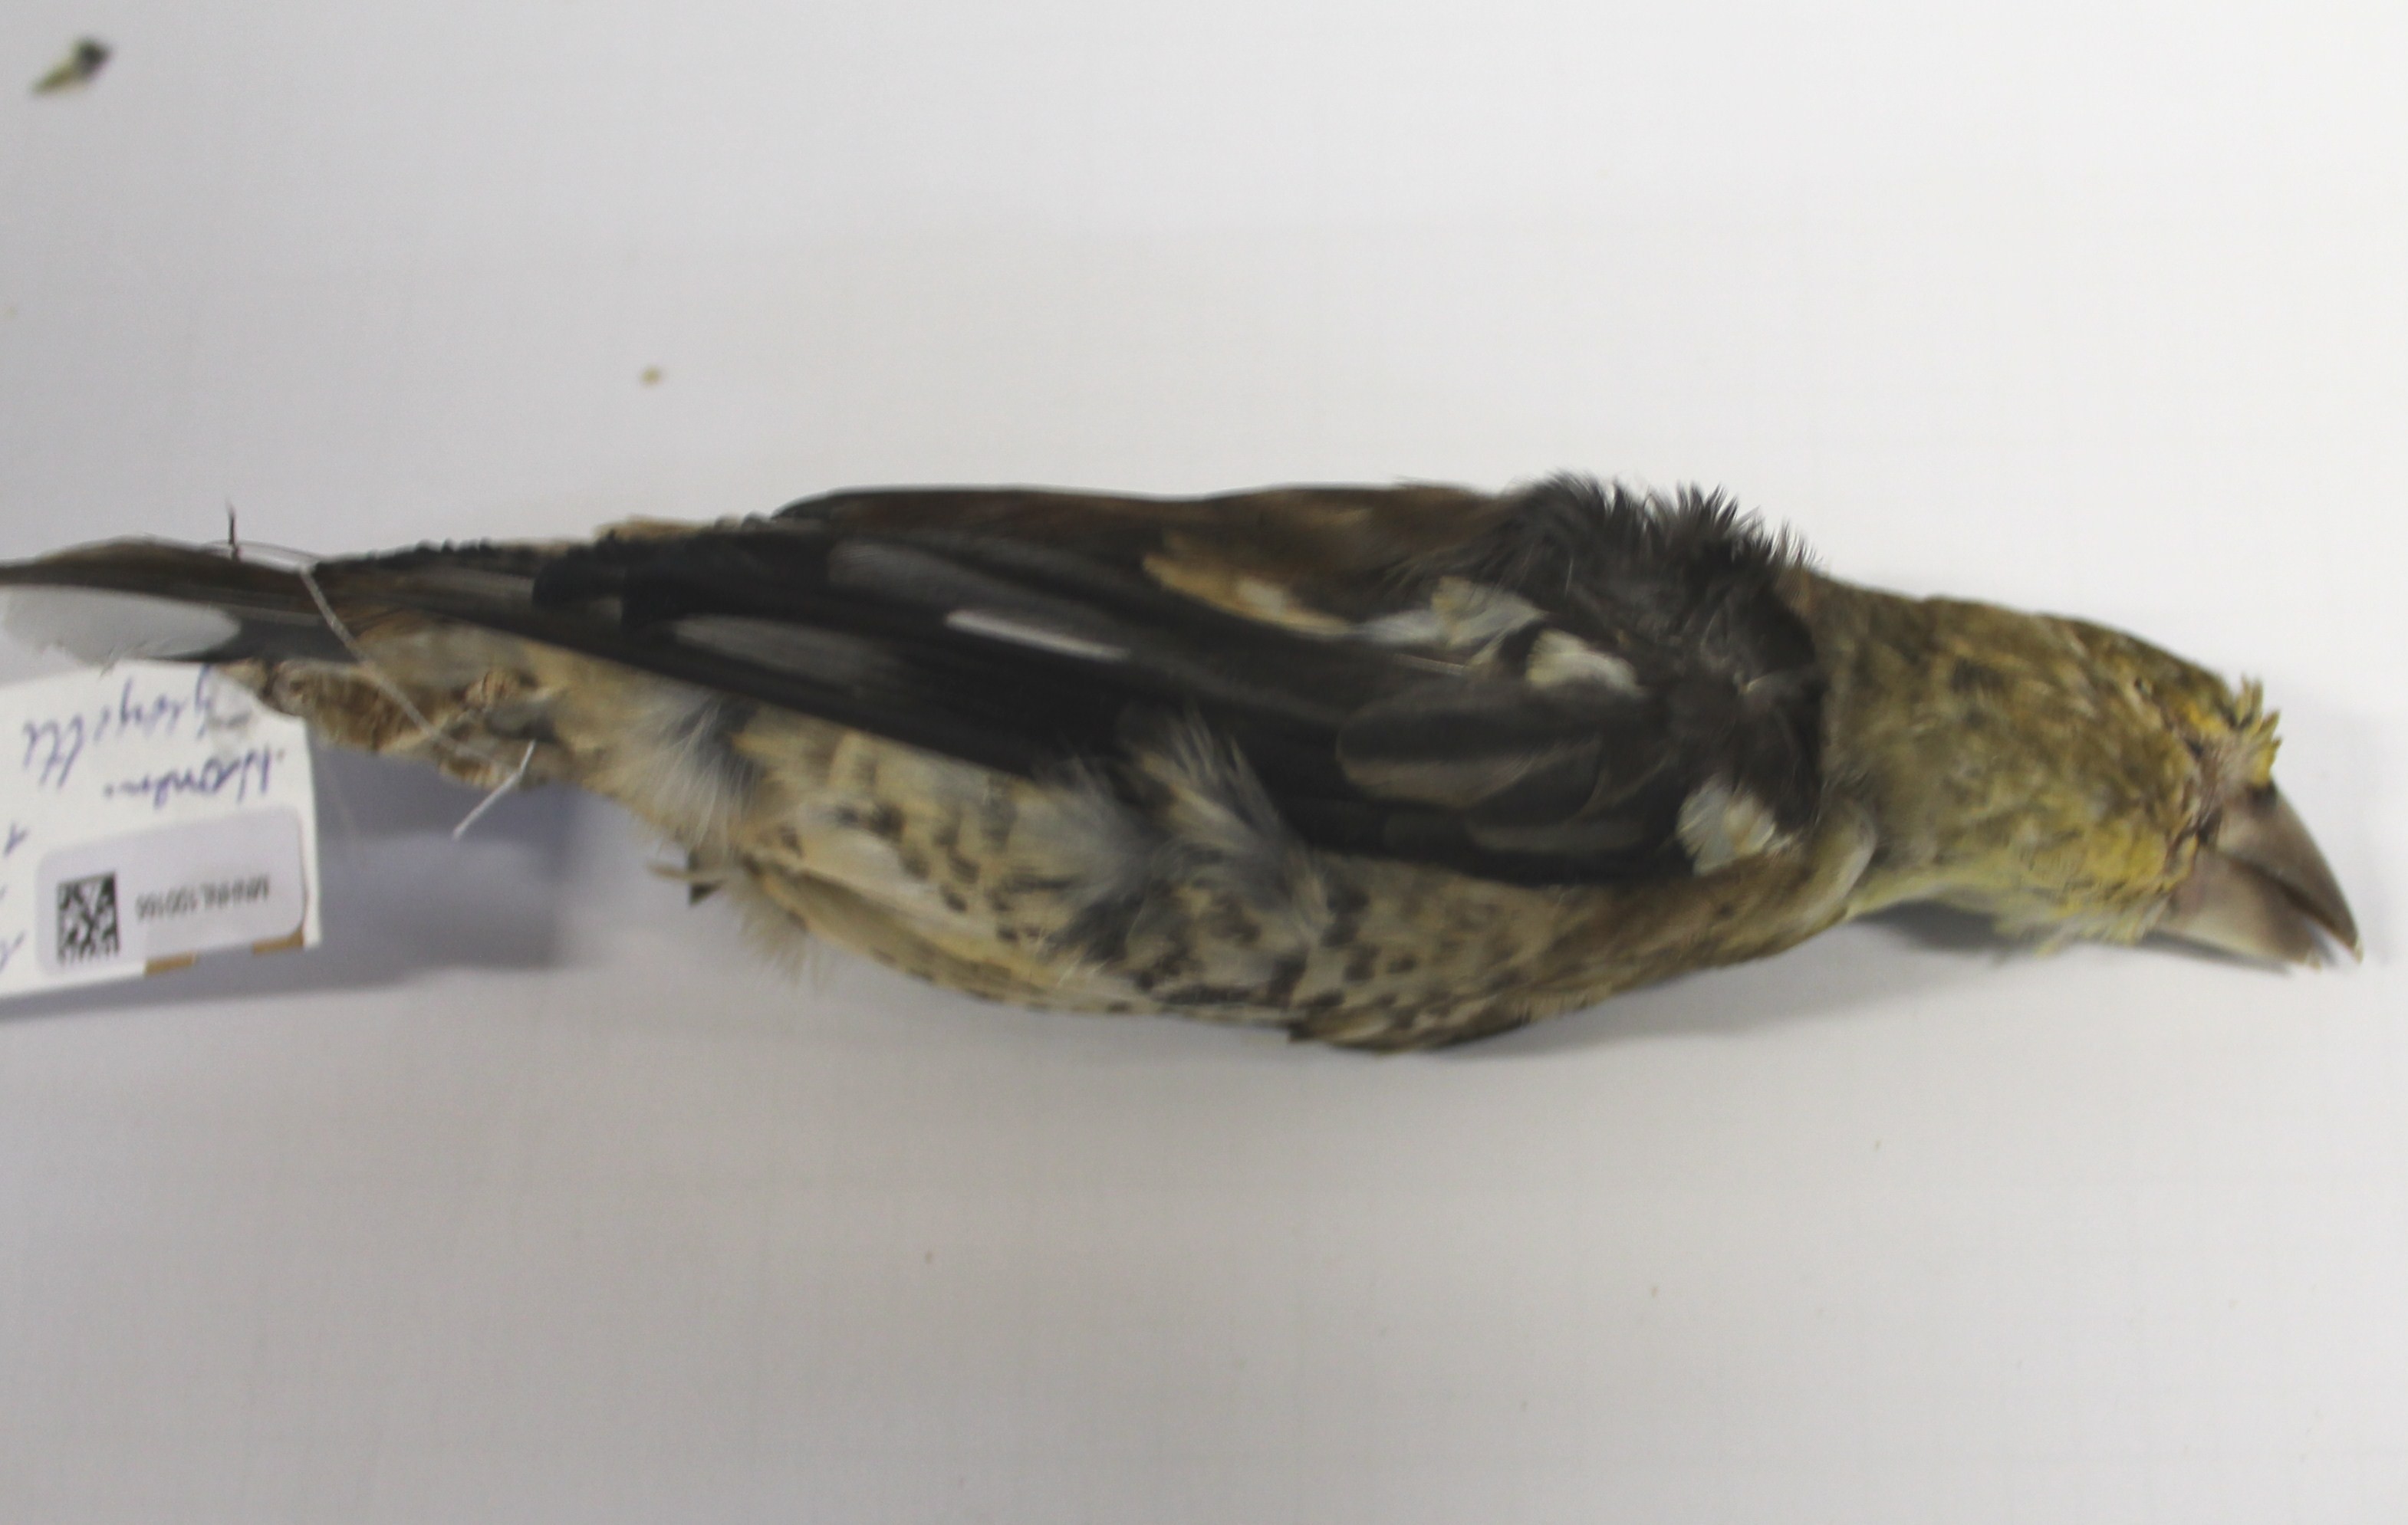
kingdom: Animalia
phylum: Chordata
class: Aves
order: Passeriformes
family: Fringillidae
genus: Coccothraustes
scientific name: Coccothraustes coccothraustes
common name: Hawfinch
